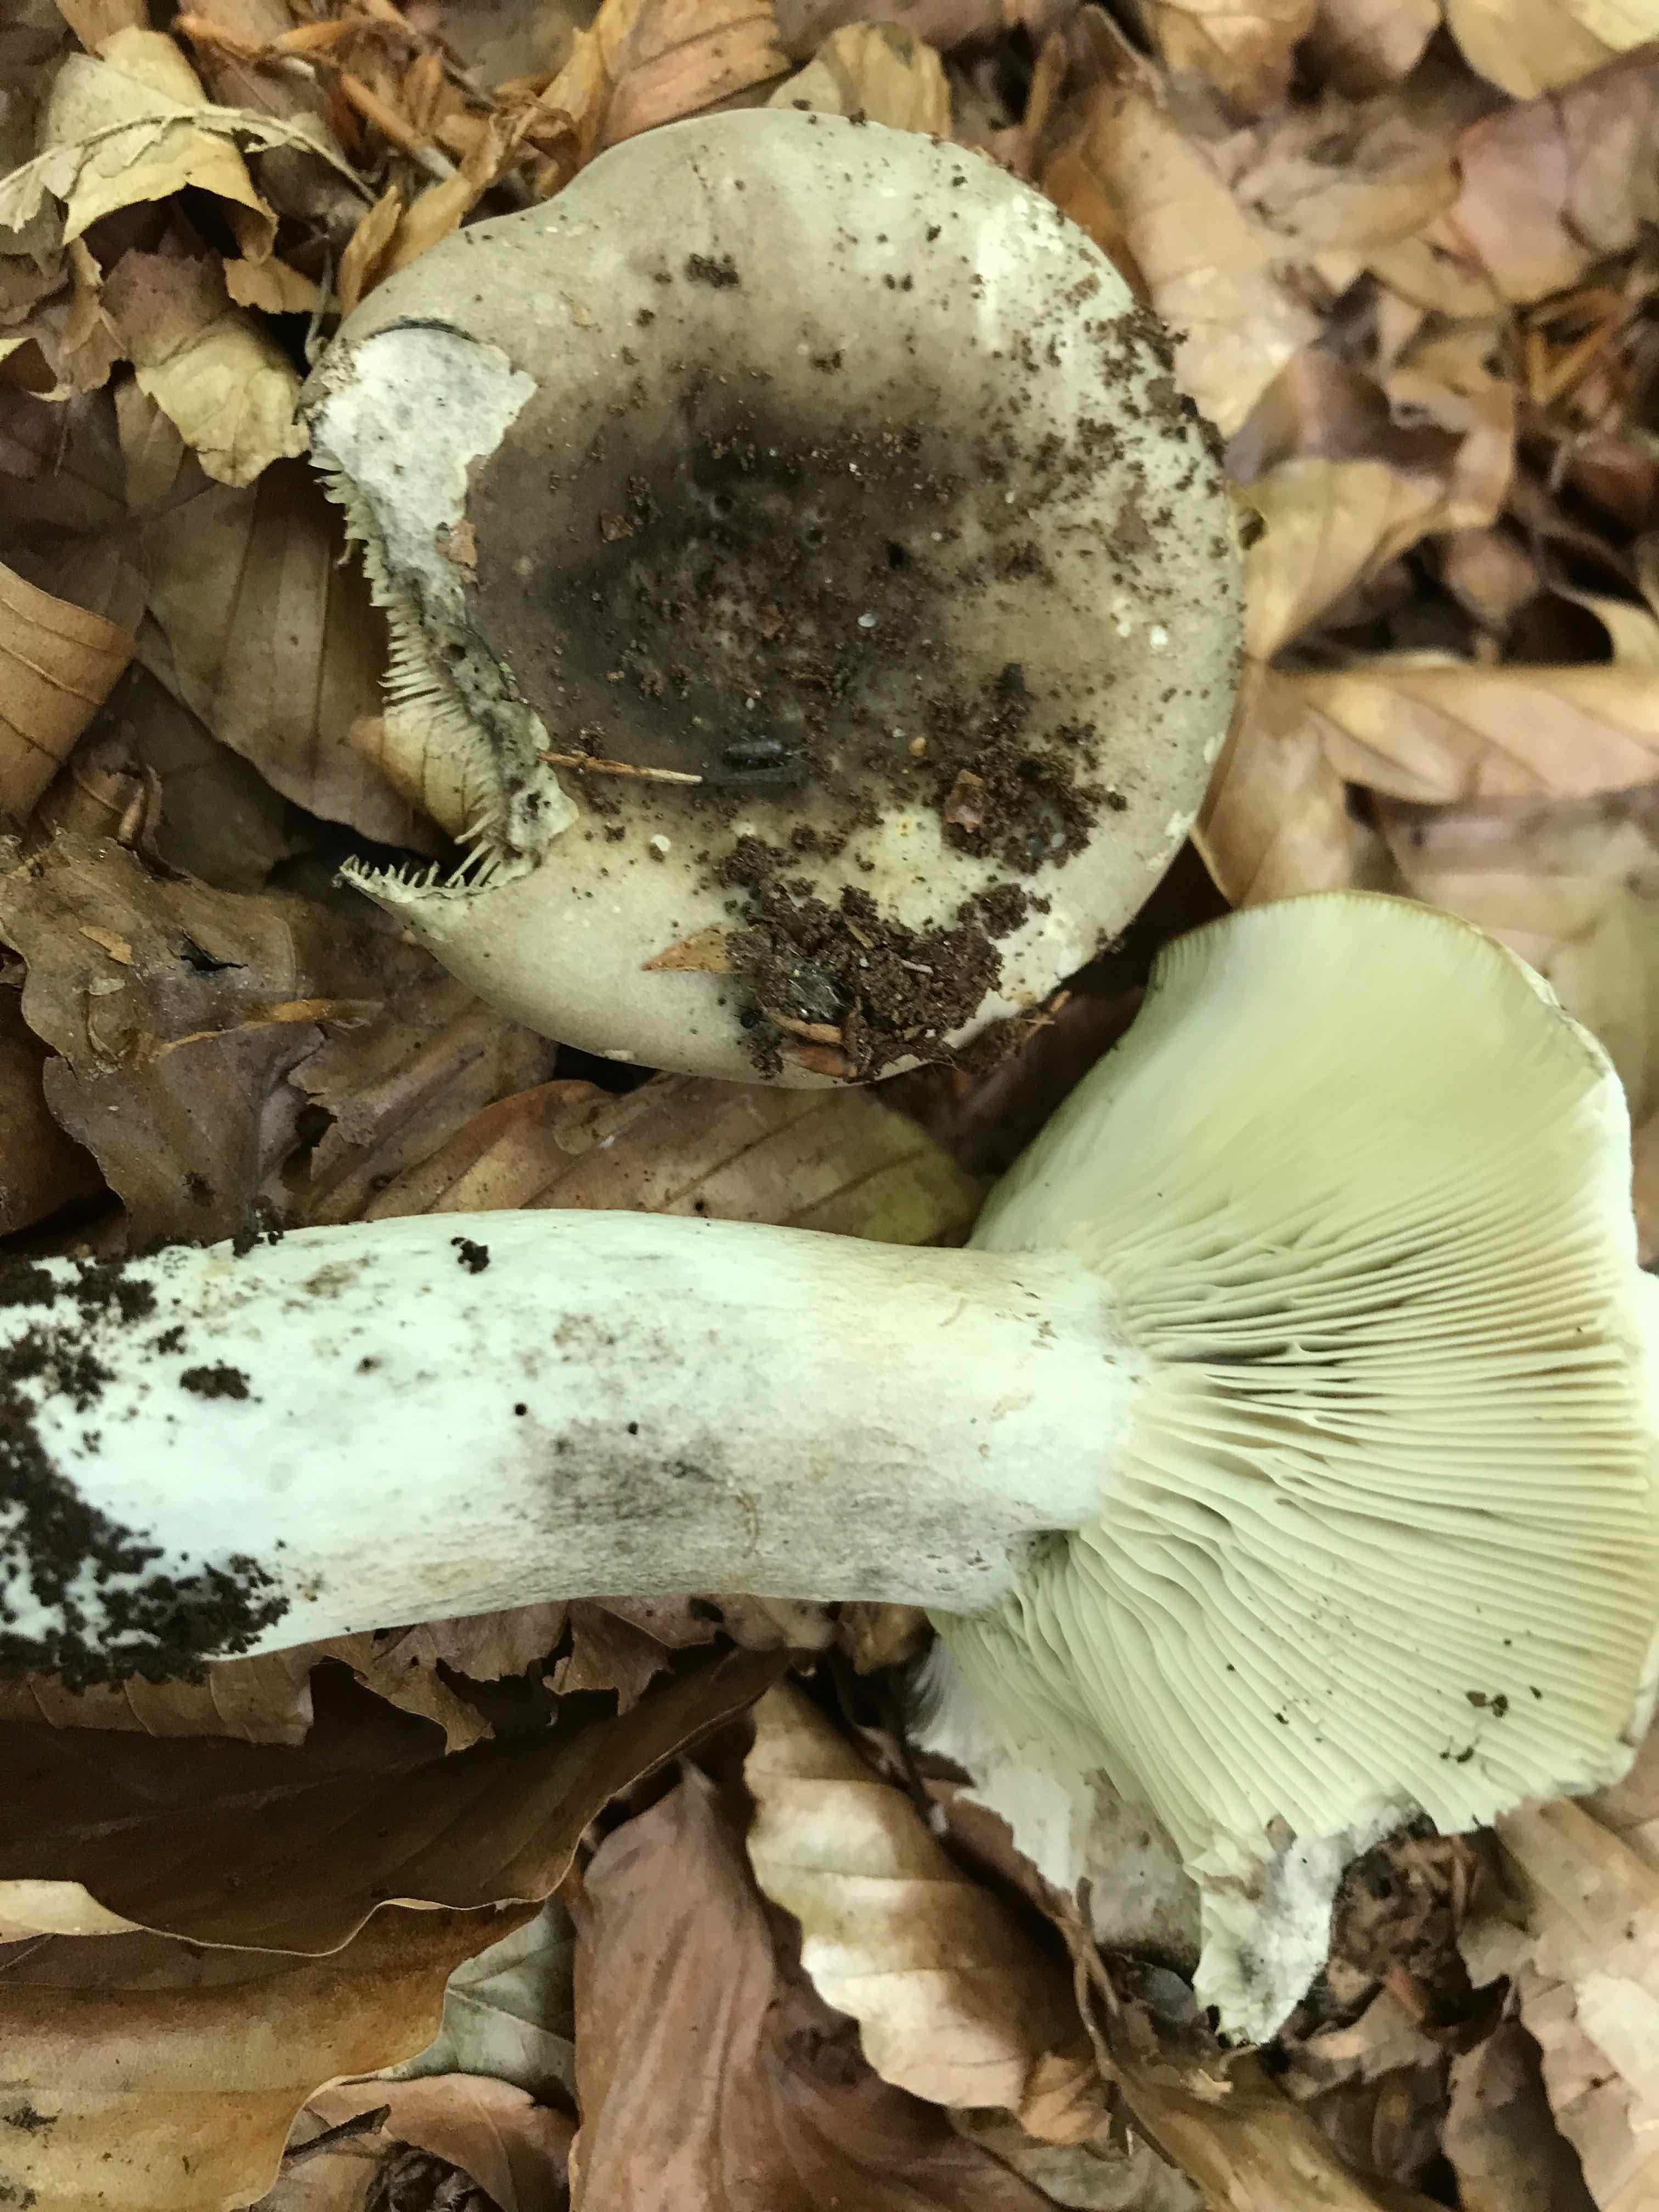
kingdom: Fungi
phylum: Basidiomycota
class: Agaricomycetes
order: Russulales
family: Russulaceae
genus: Russula
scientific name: Russula densifolia
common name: tætbladet skørhat
